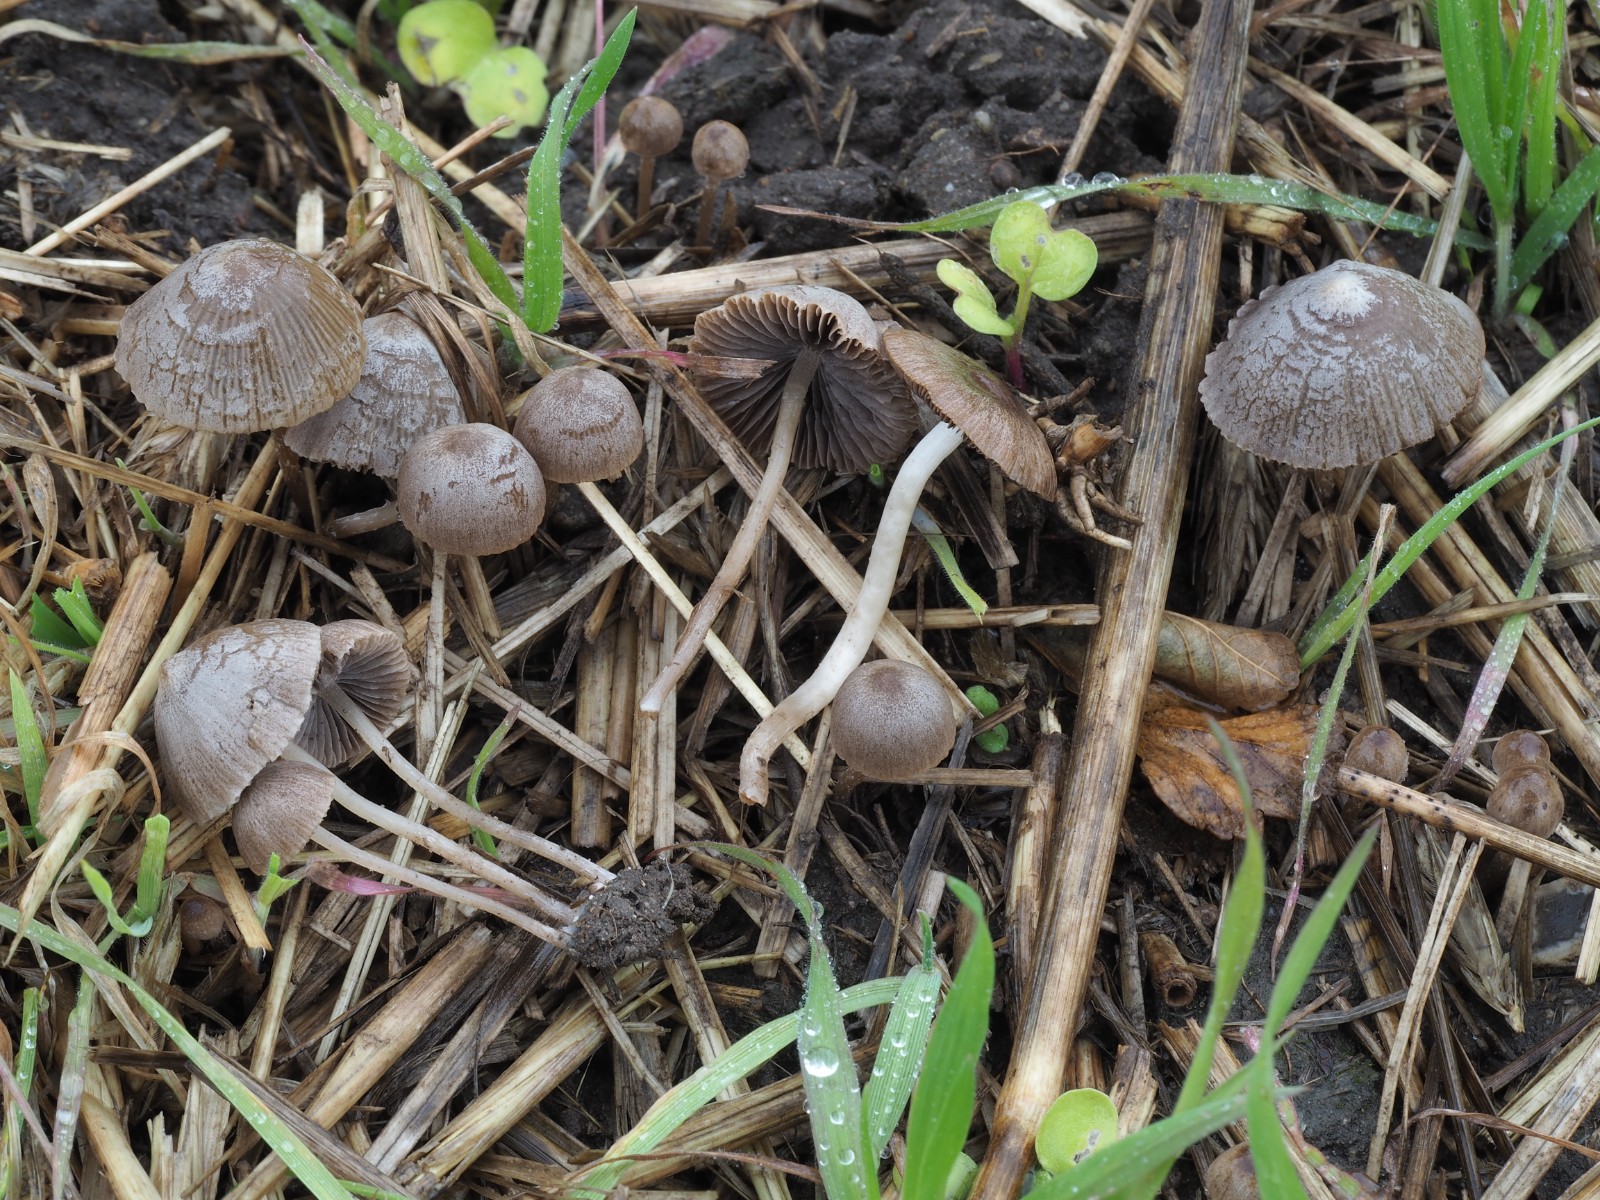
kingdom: Fungi
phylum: Basidiomycota
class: Agaricomycetes
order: Agaricales
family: Psathyrellaceae
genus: Psathyrella
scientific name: Psathyrella potteri
